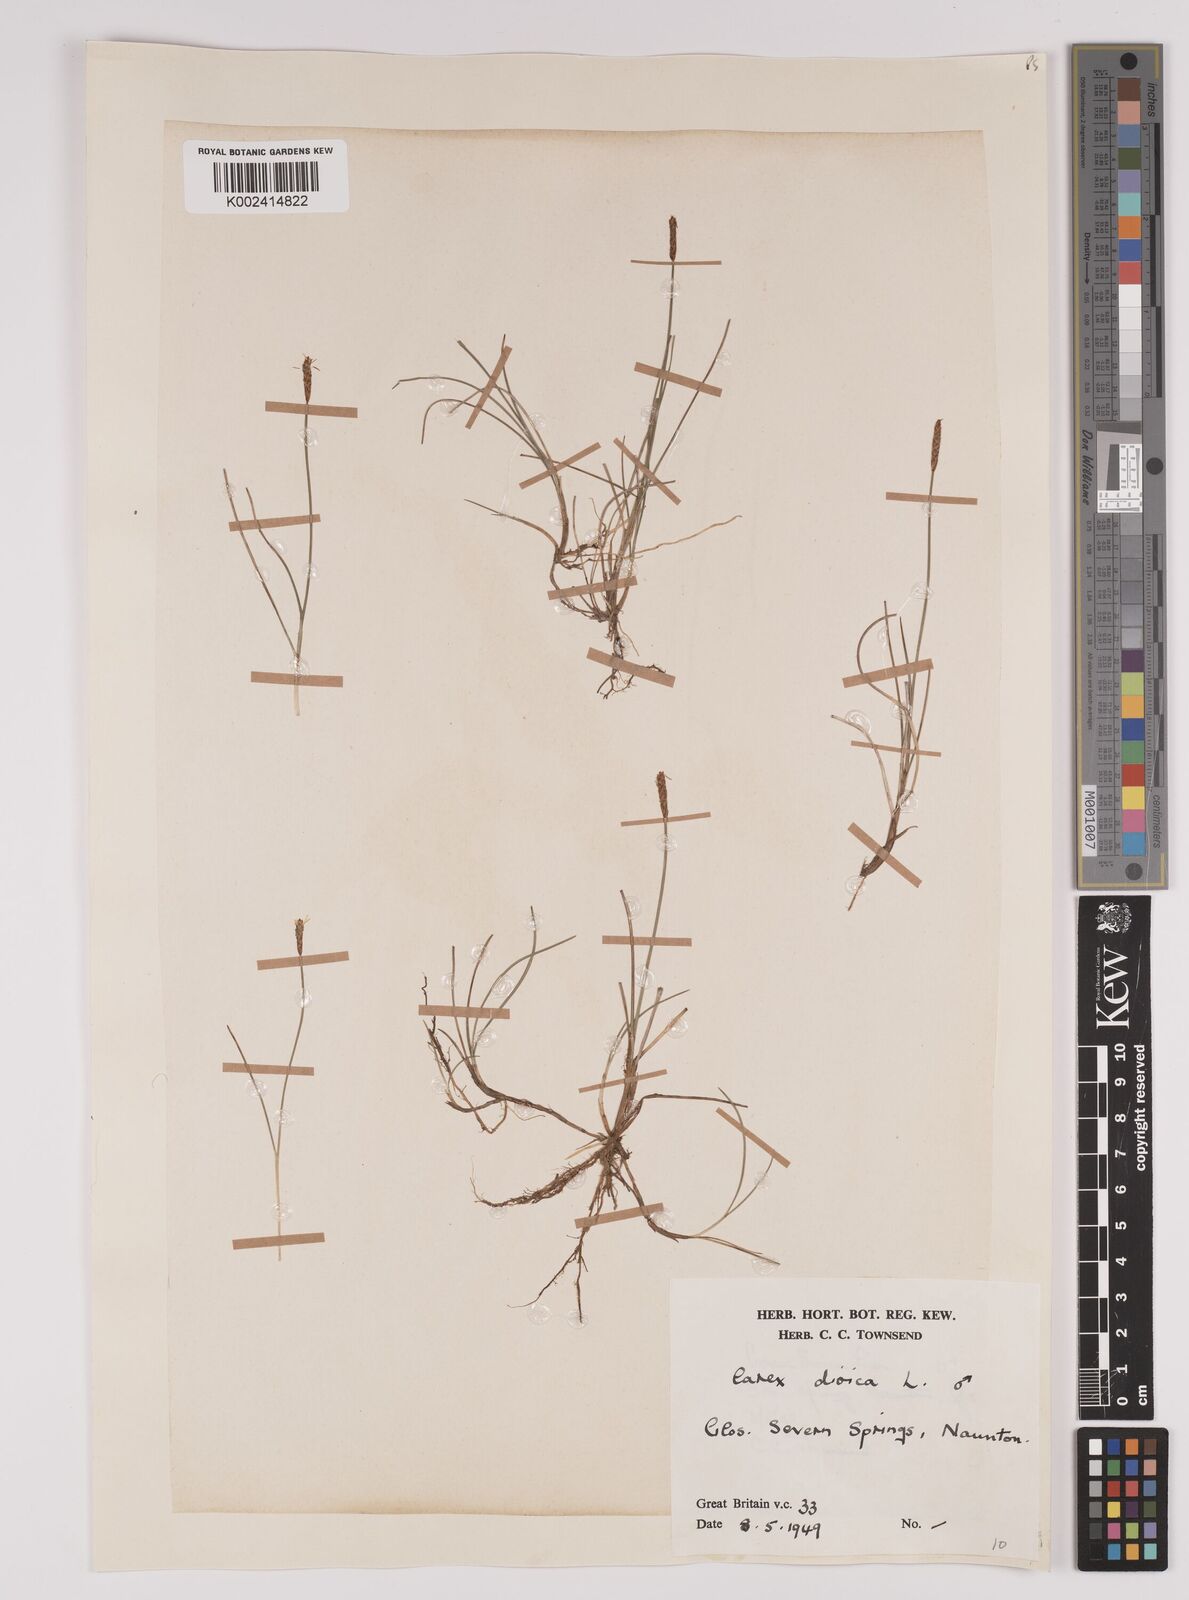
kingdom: Plantae
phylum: Tracheophyta
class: Liliopsida
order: Poales
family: Cyperaceae
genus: Carex
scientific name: Carex dioica
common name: Dioecious sedge
